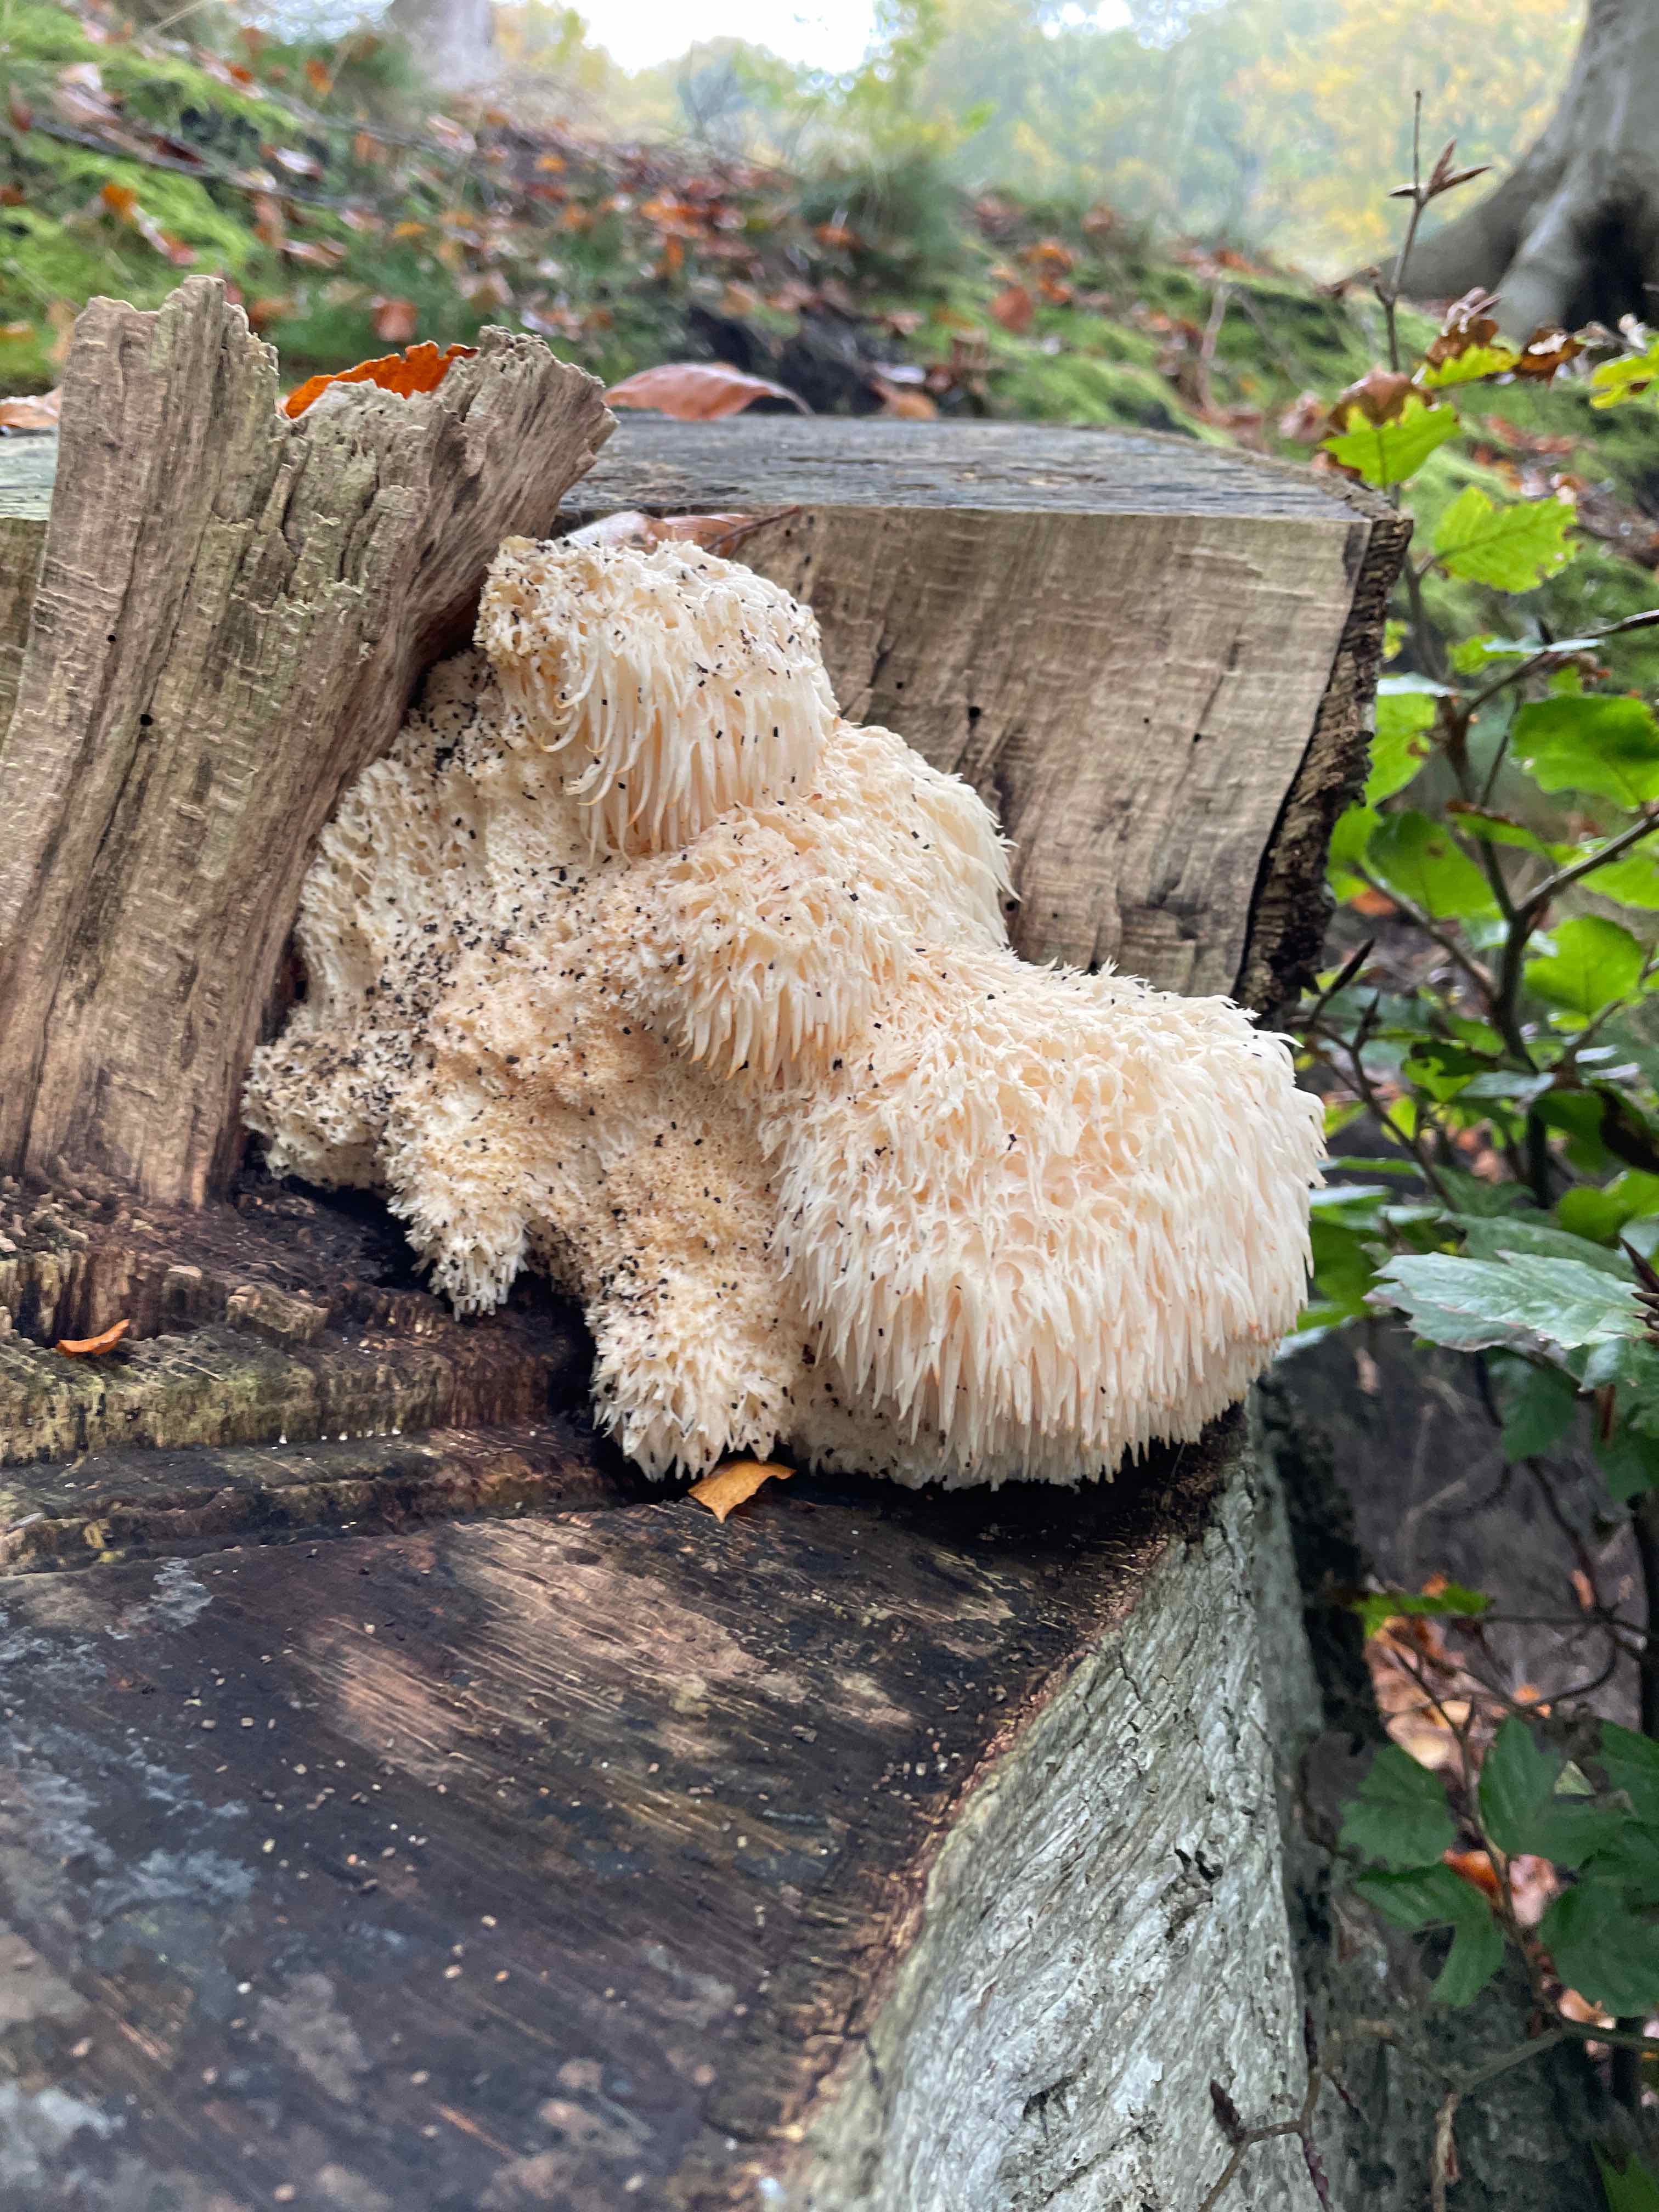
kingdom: Fungi
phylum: Basidiomycota
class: Agaricomycetes
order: Russulales
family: Hericiaceae
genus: Hericium
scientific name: Hericium erinaceus
